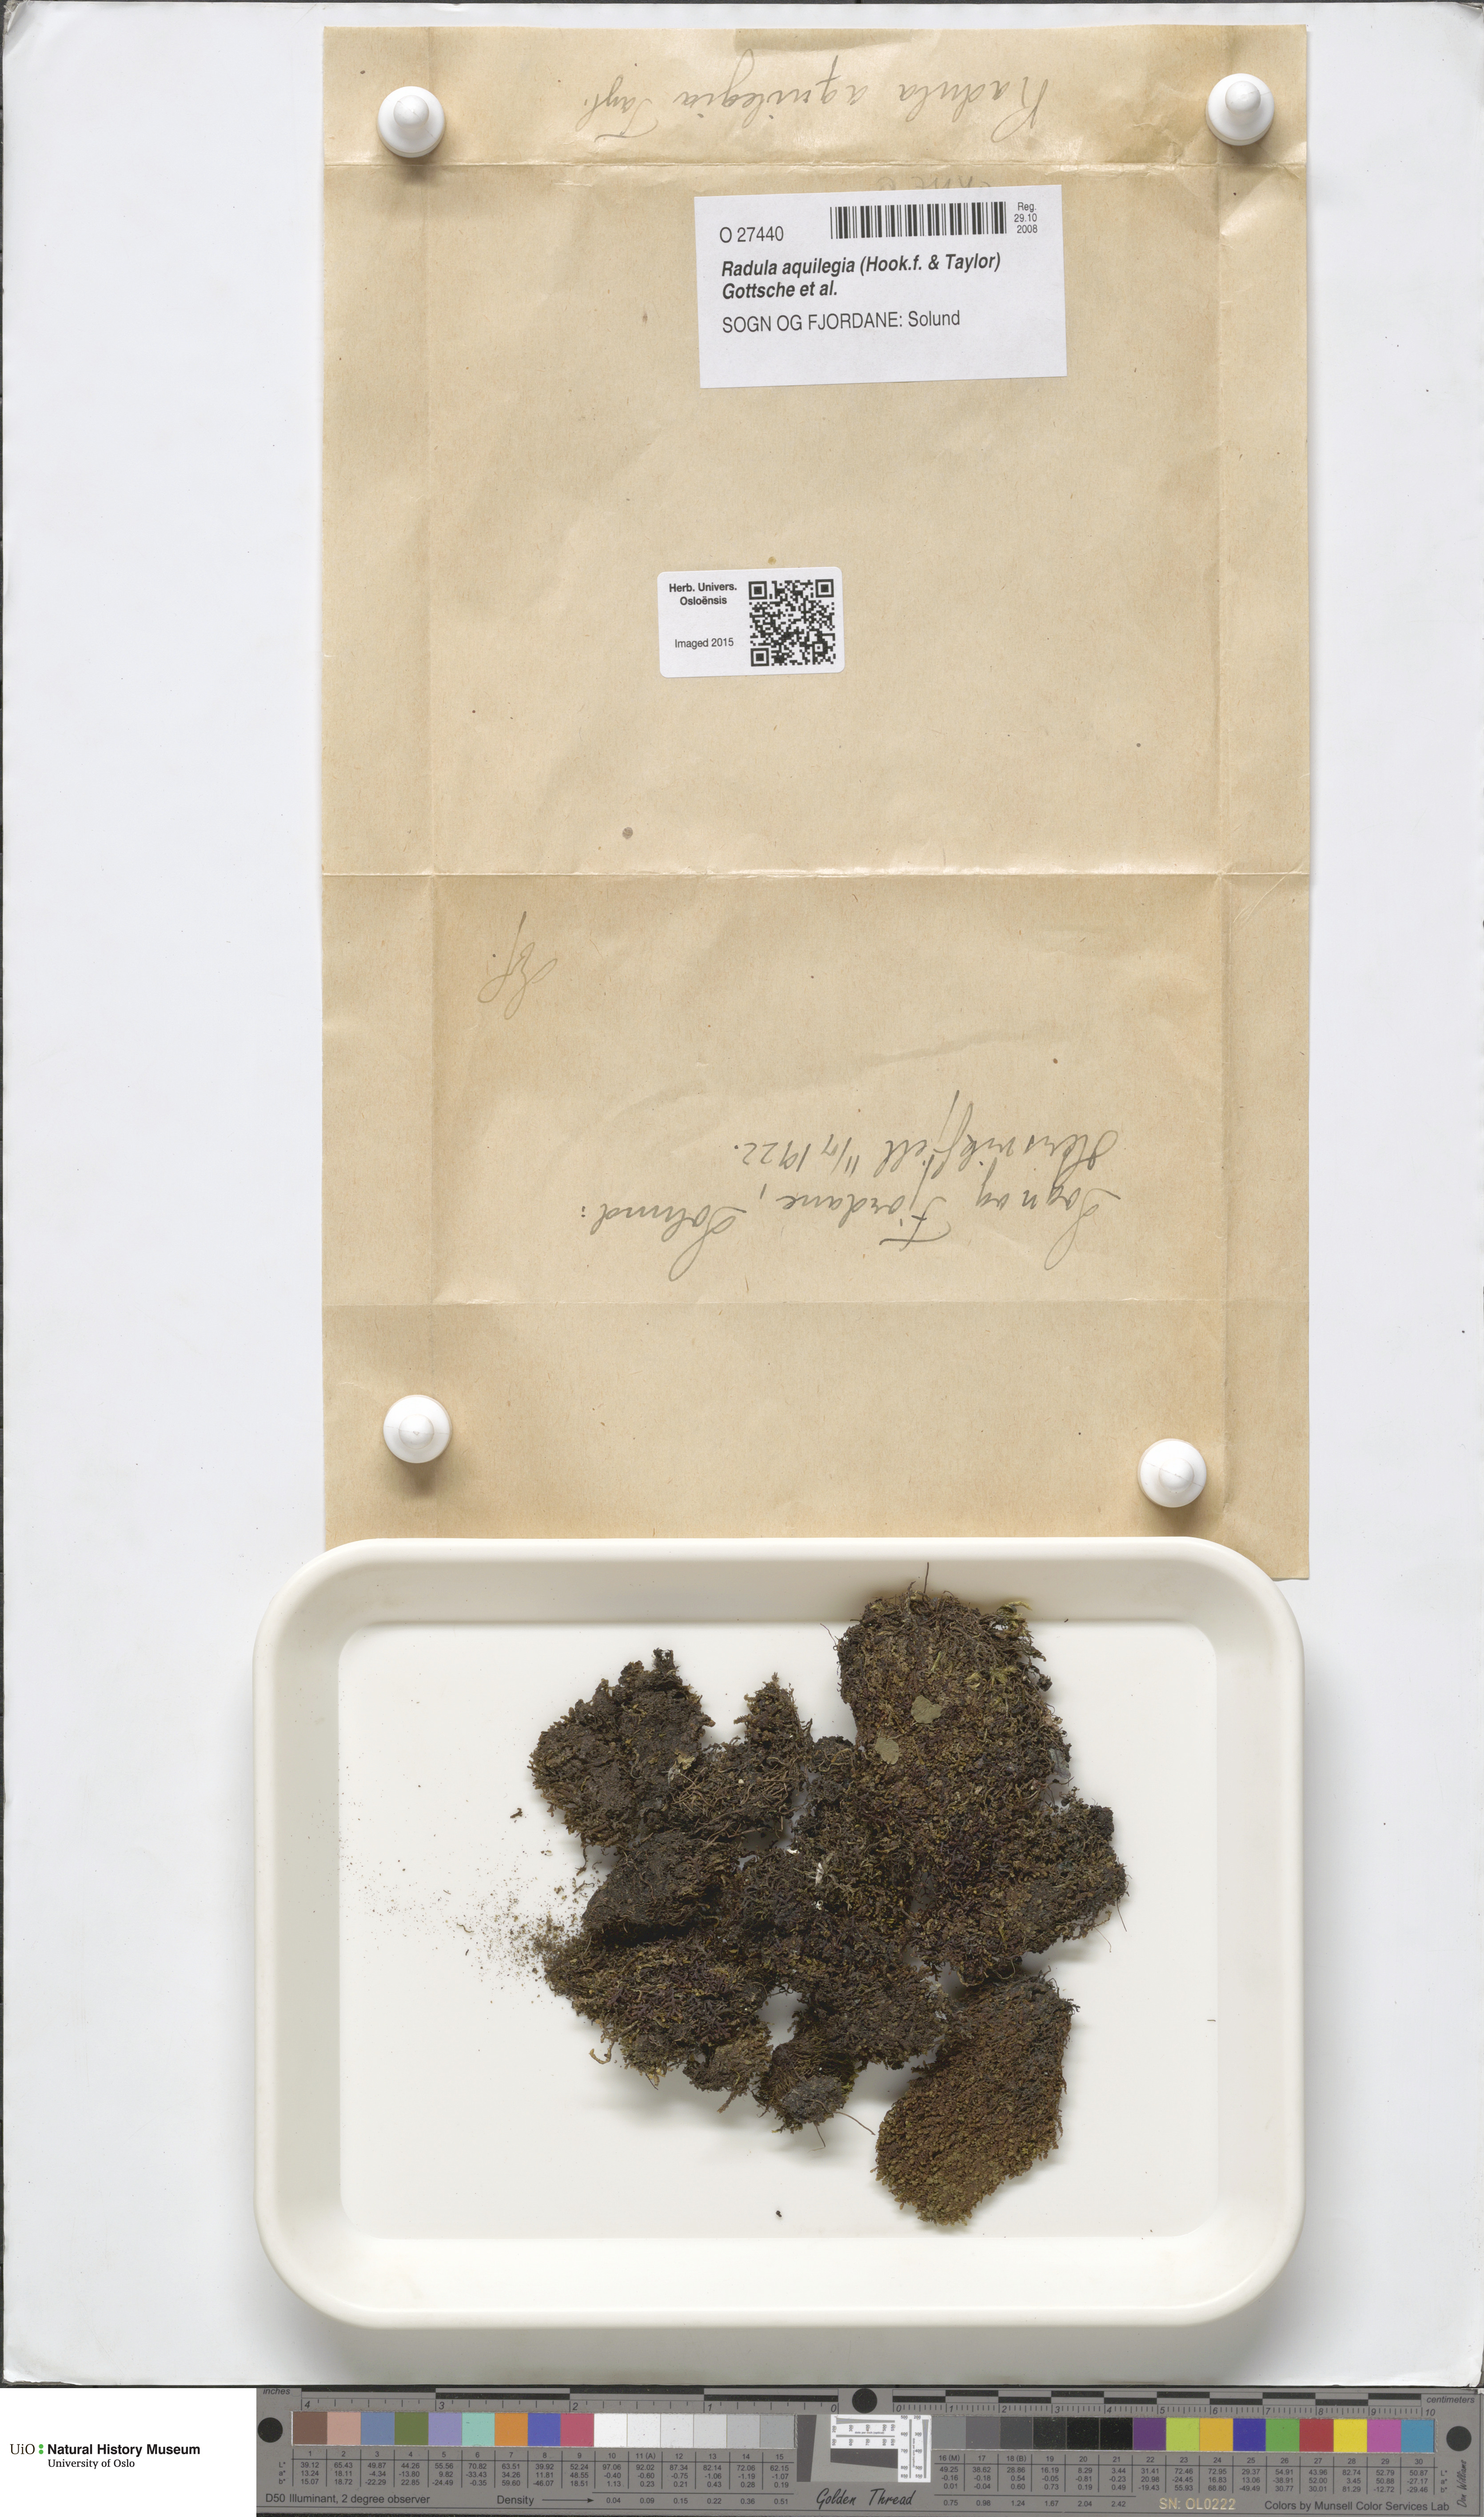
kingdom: Plantae
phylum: Marchantiophyta
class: Jungermanniopsida
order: Porellales
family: Radulaceae
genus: Radula
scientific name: Radula aquilegia
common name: Brown scalewort
